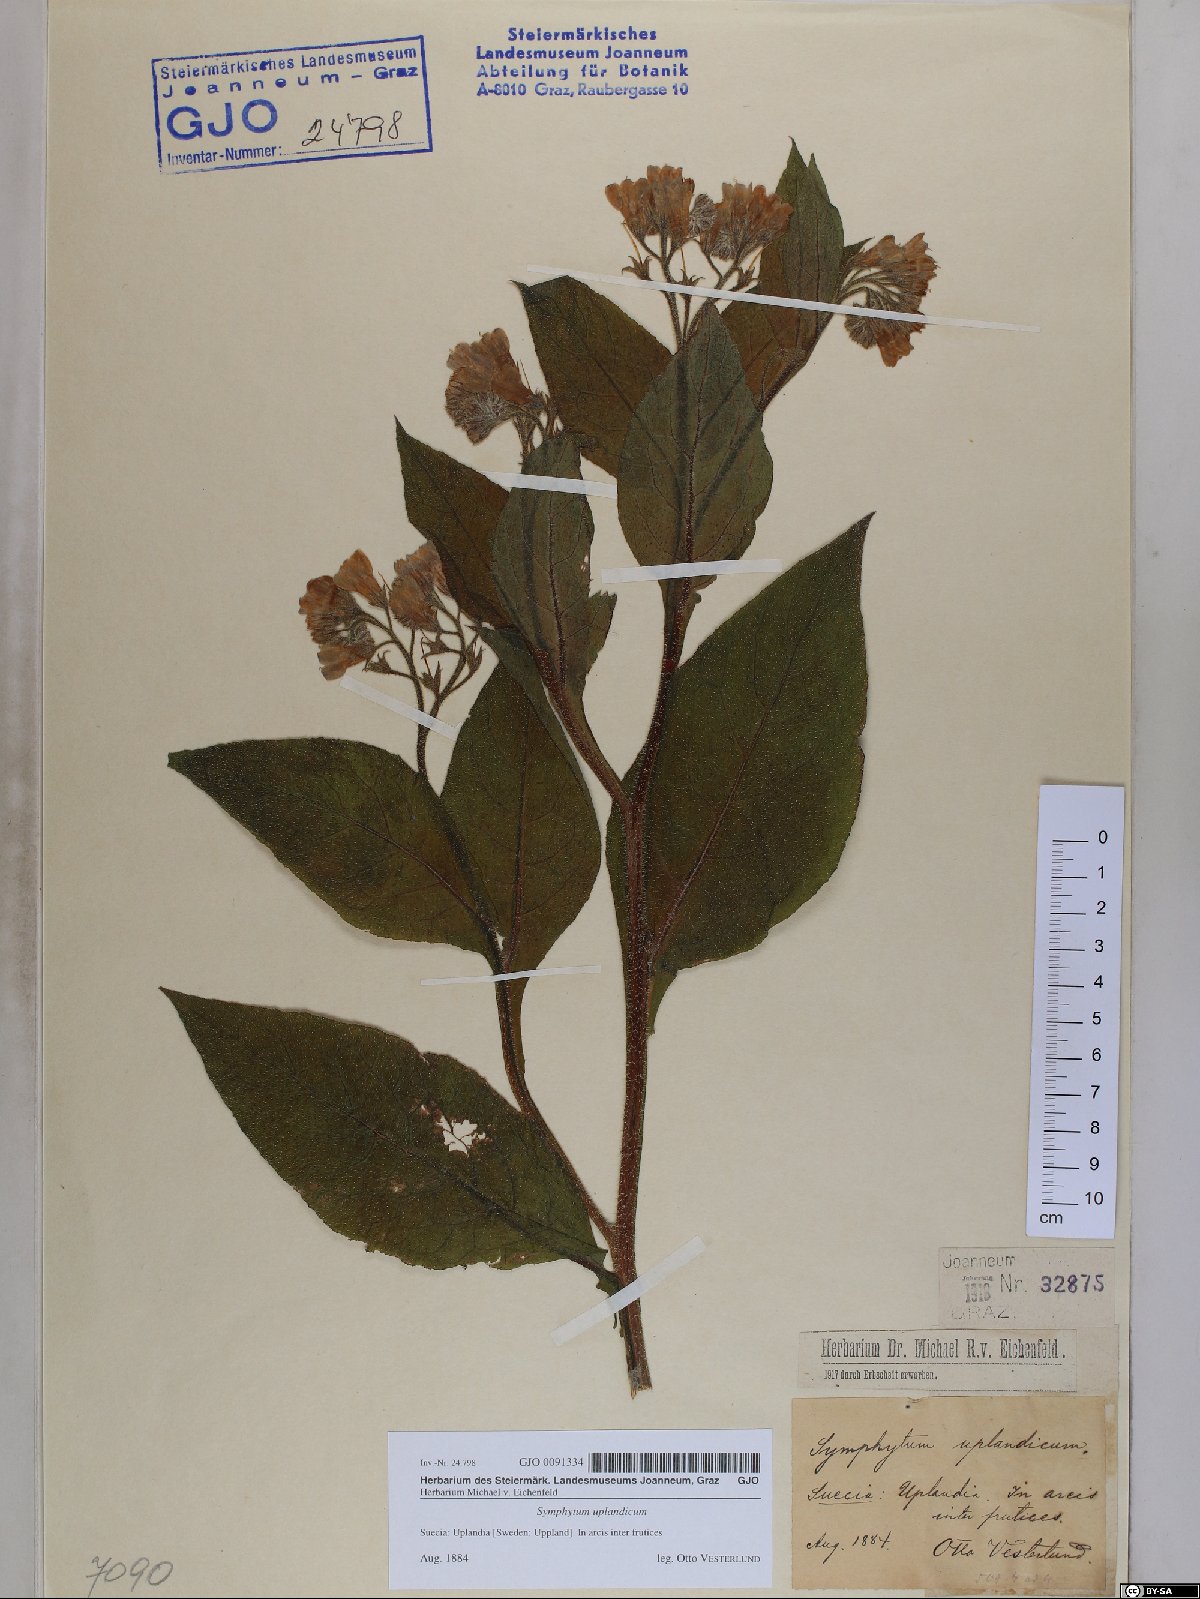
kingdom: Plantae
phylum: Tracheophyta
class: Magnoliopsida
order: Boraginales
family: Boraginaceae
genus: Symphytum
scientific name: Symphytum uplandicum
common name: Russian comfrey
